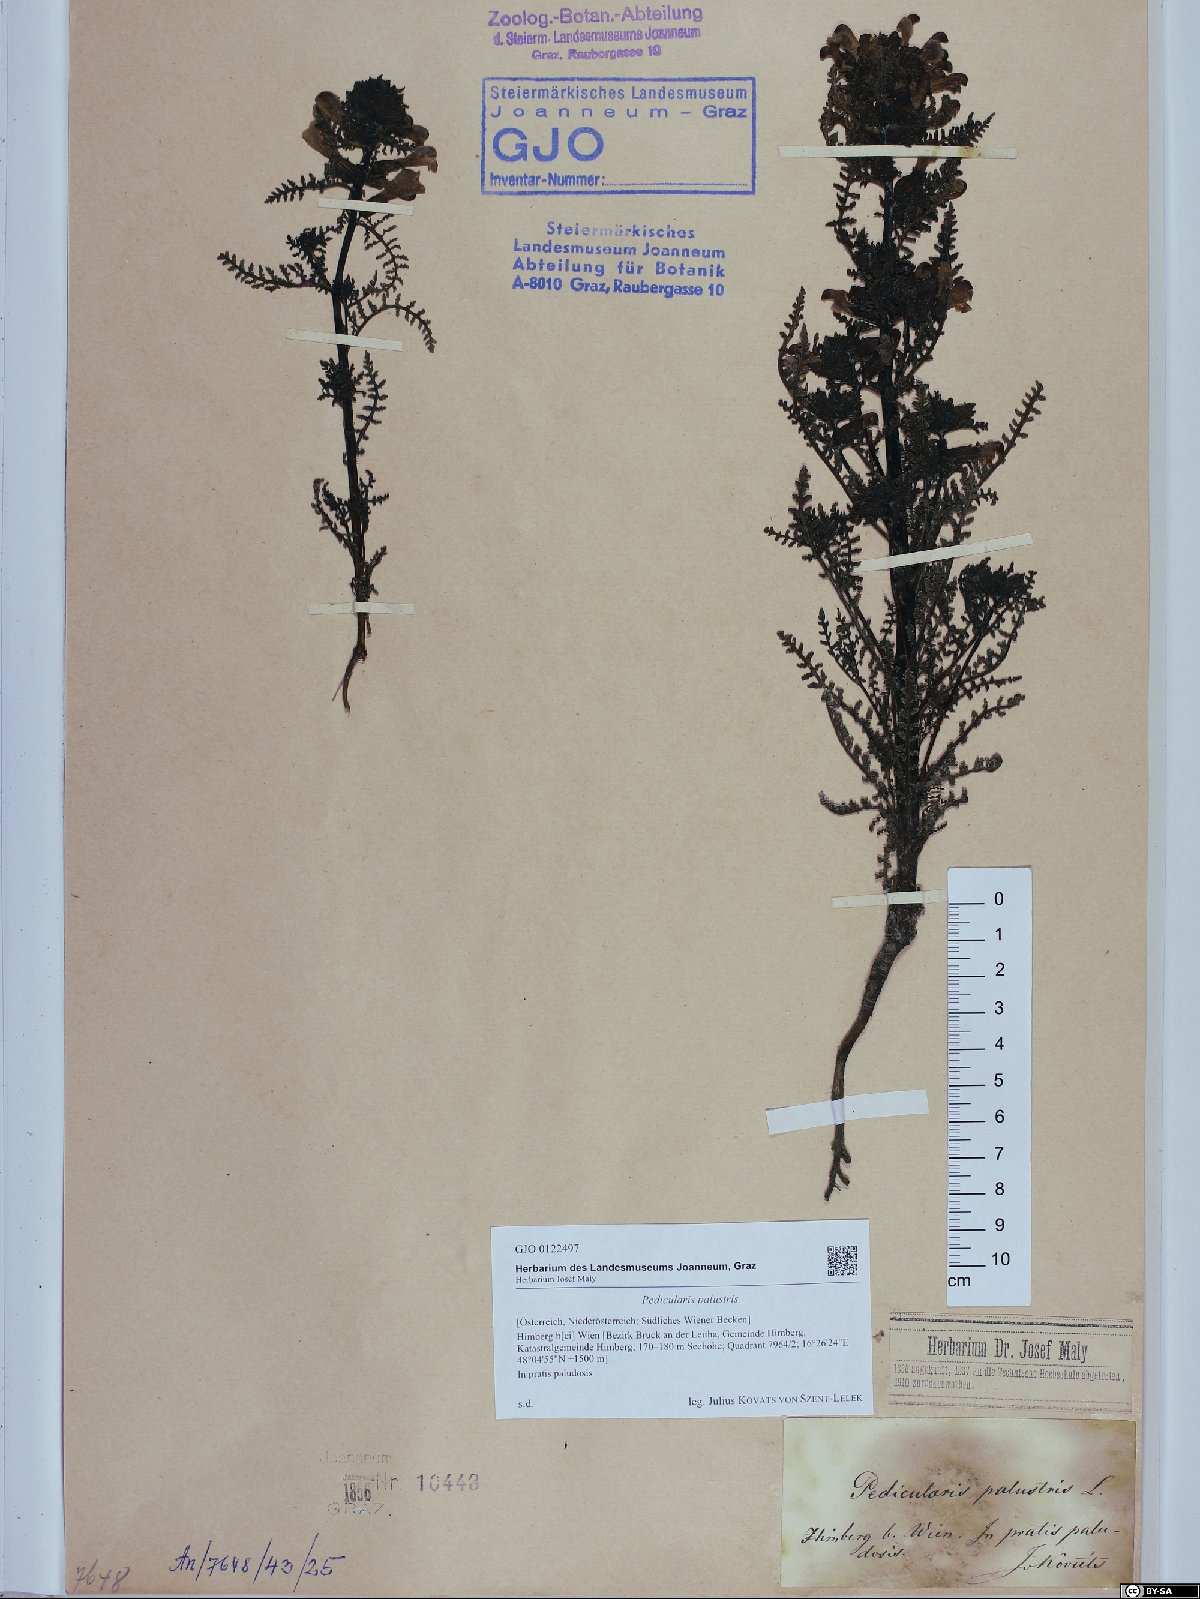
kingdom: Plantae
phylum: Tracheophyta
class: Magnoliopsida
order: Lamiales
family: Orobanchaceae
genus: Pedicularis
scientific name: Pedicularis palustris
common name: Marsh lousewort
